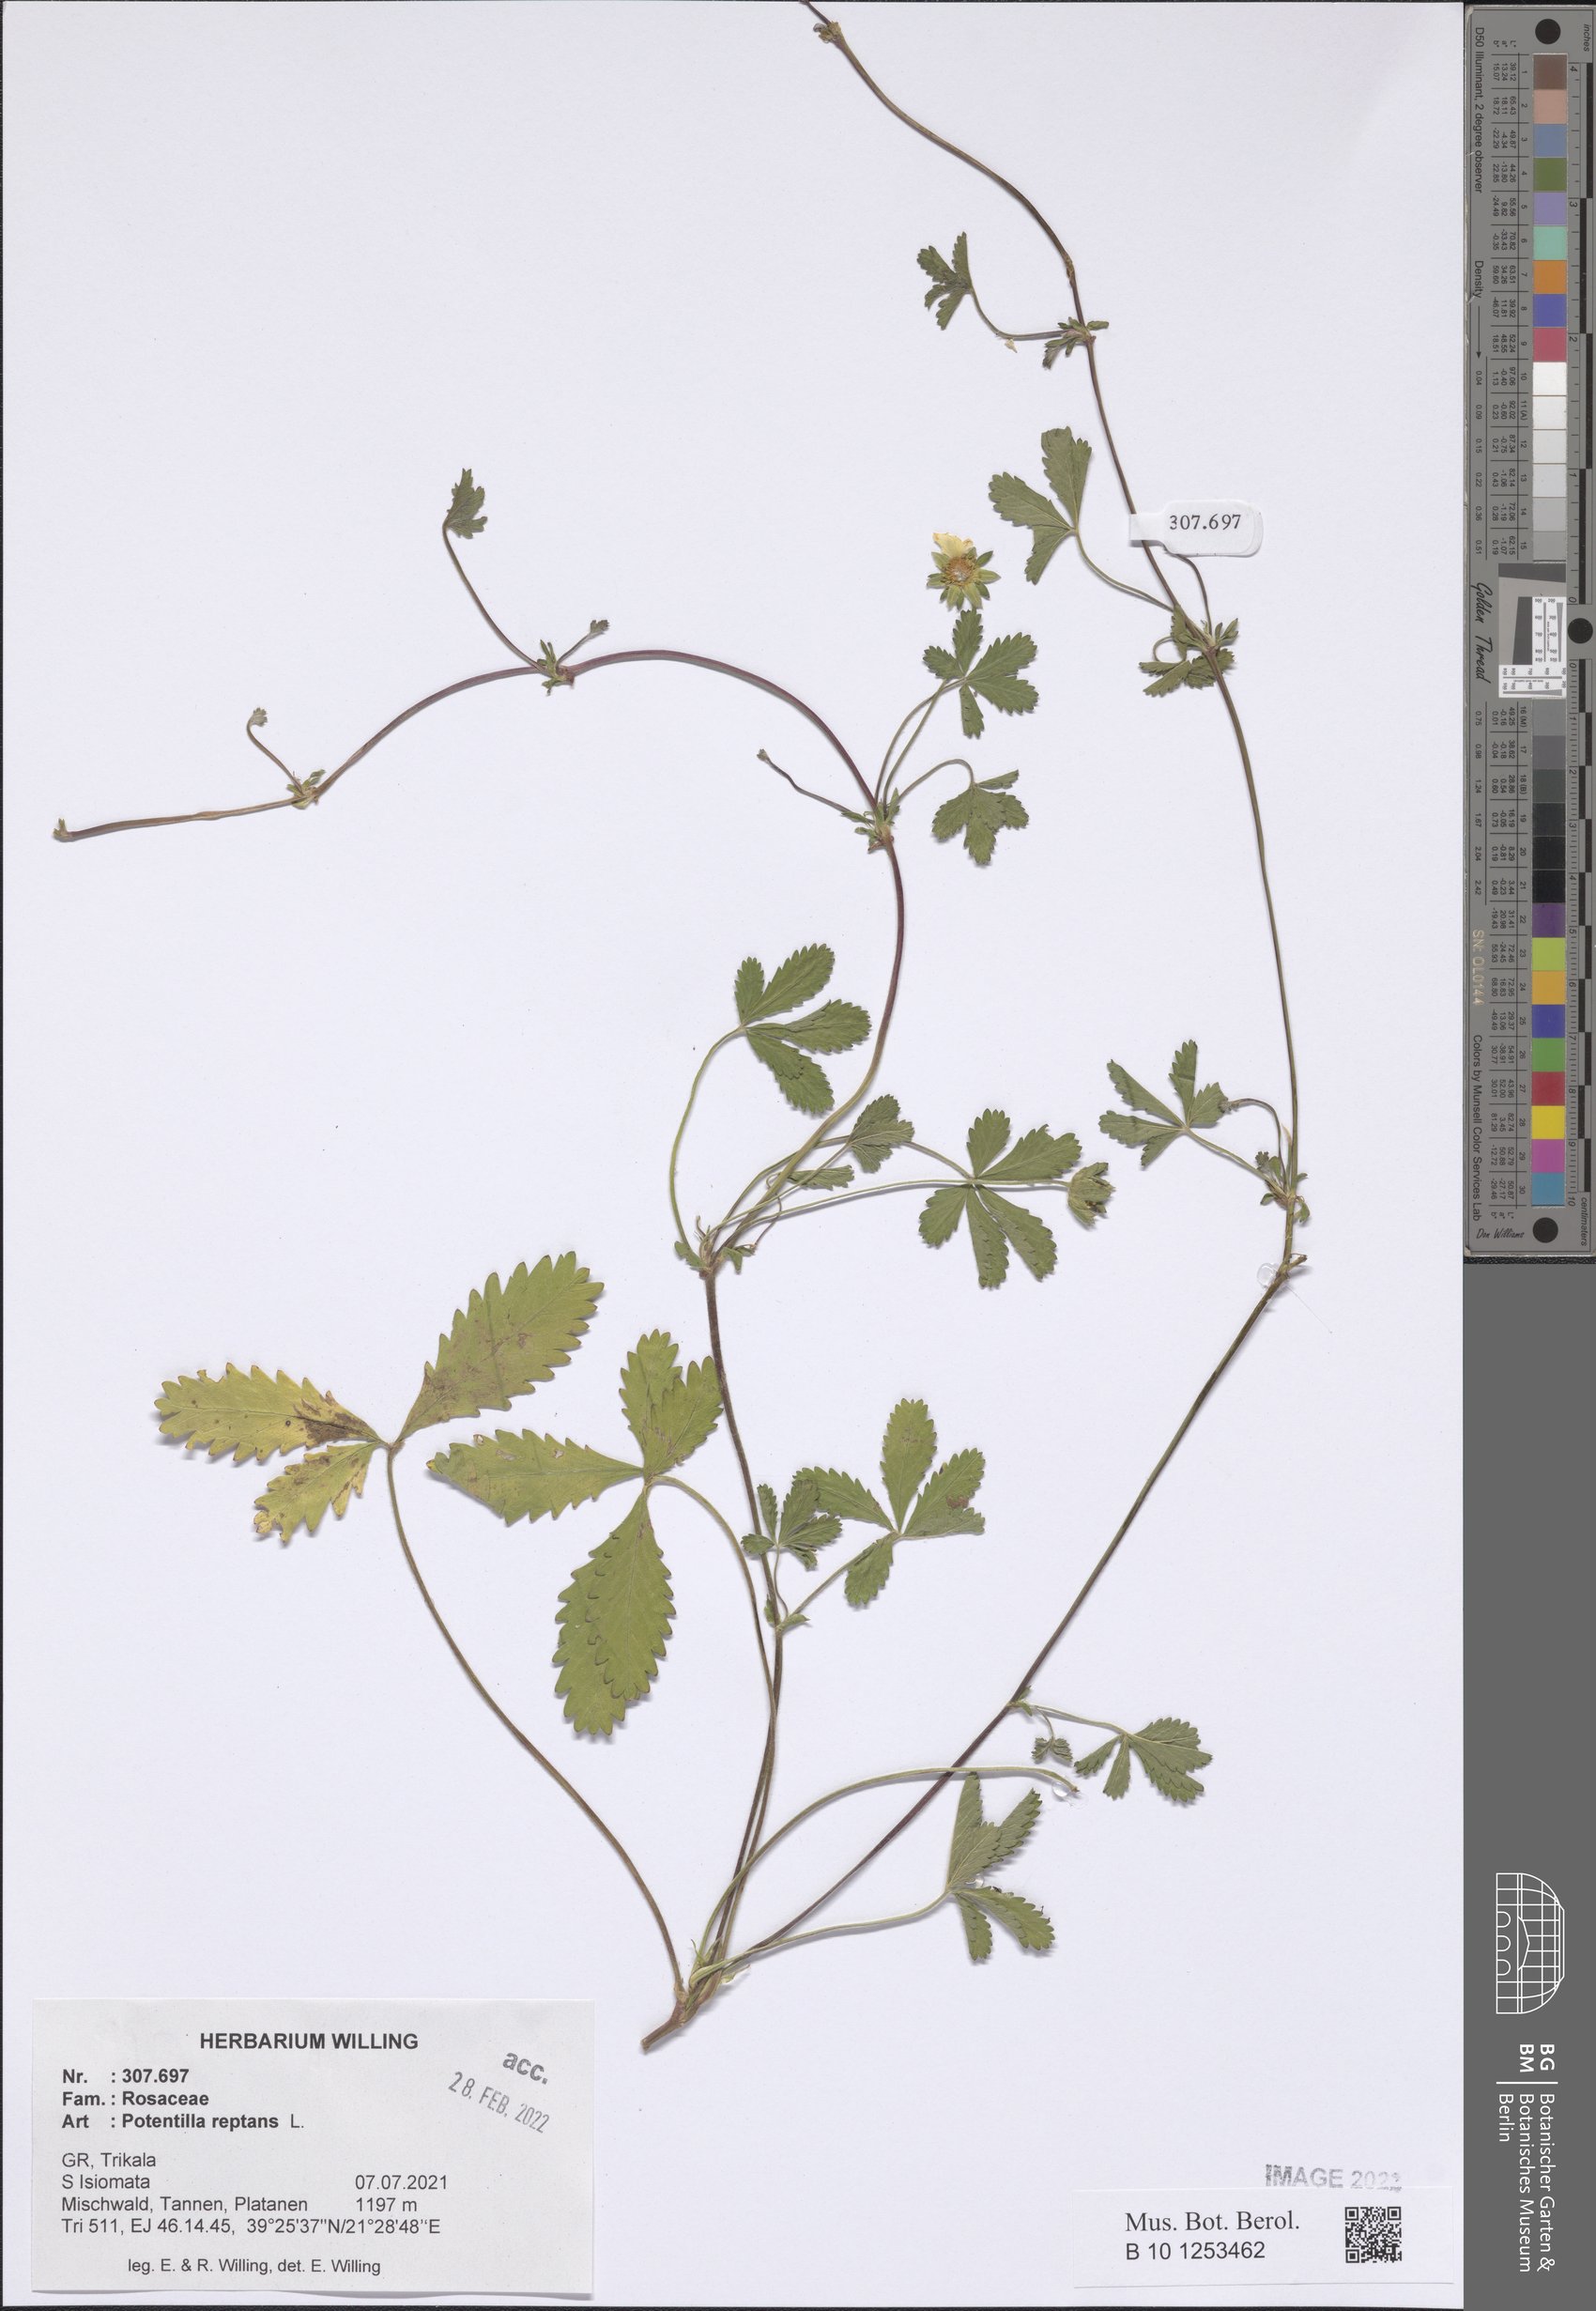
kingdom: Plantae
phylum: Tracheophyta
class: Magnoliopsida
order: Rosales
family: Rosaceae
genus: Potentilla
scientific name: Potentilla reptans
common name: Creeping cinquefoil
